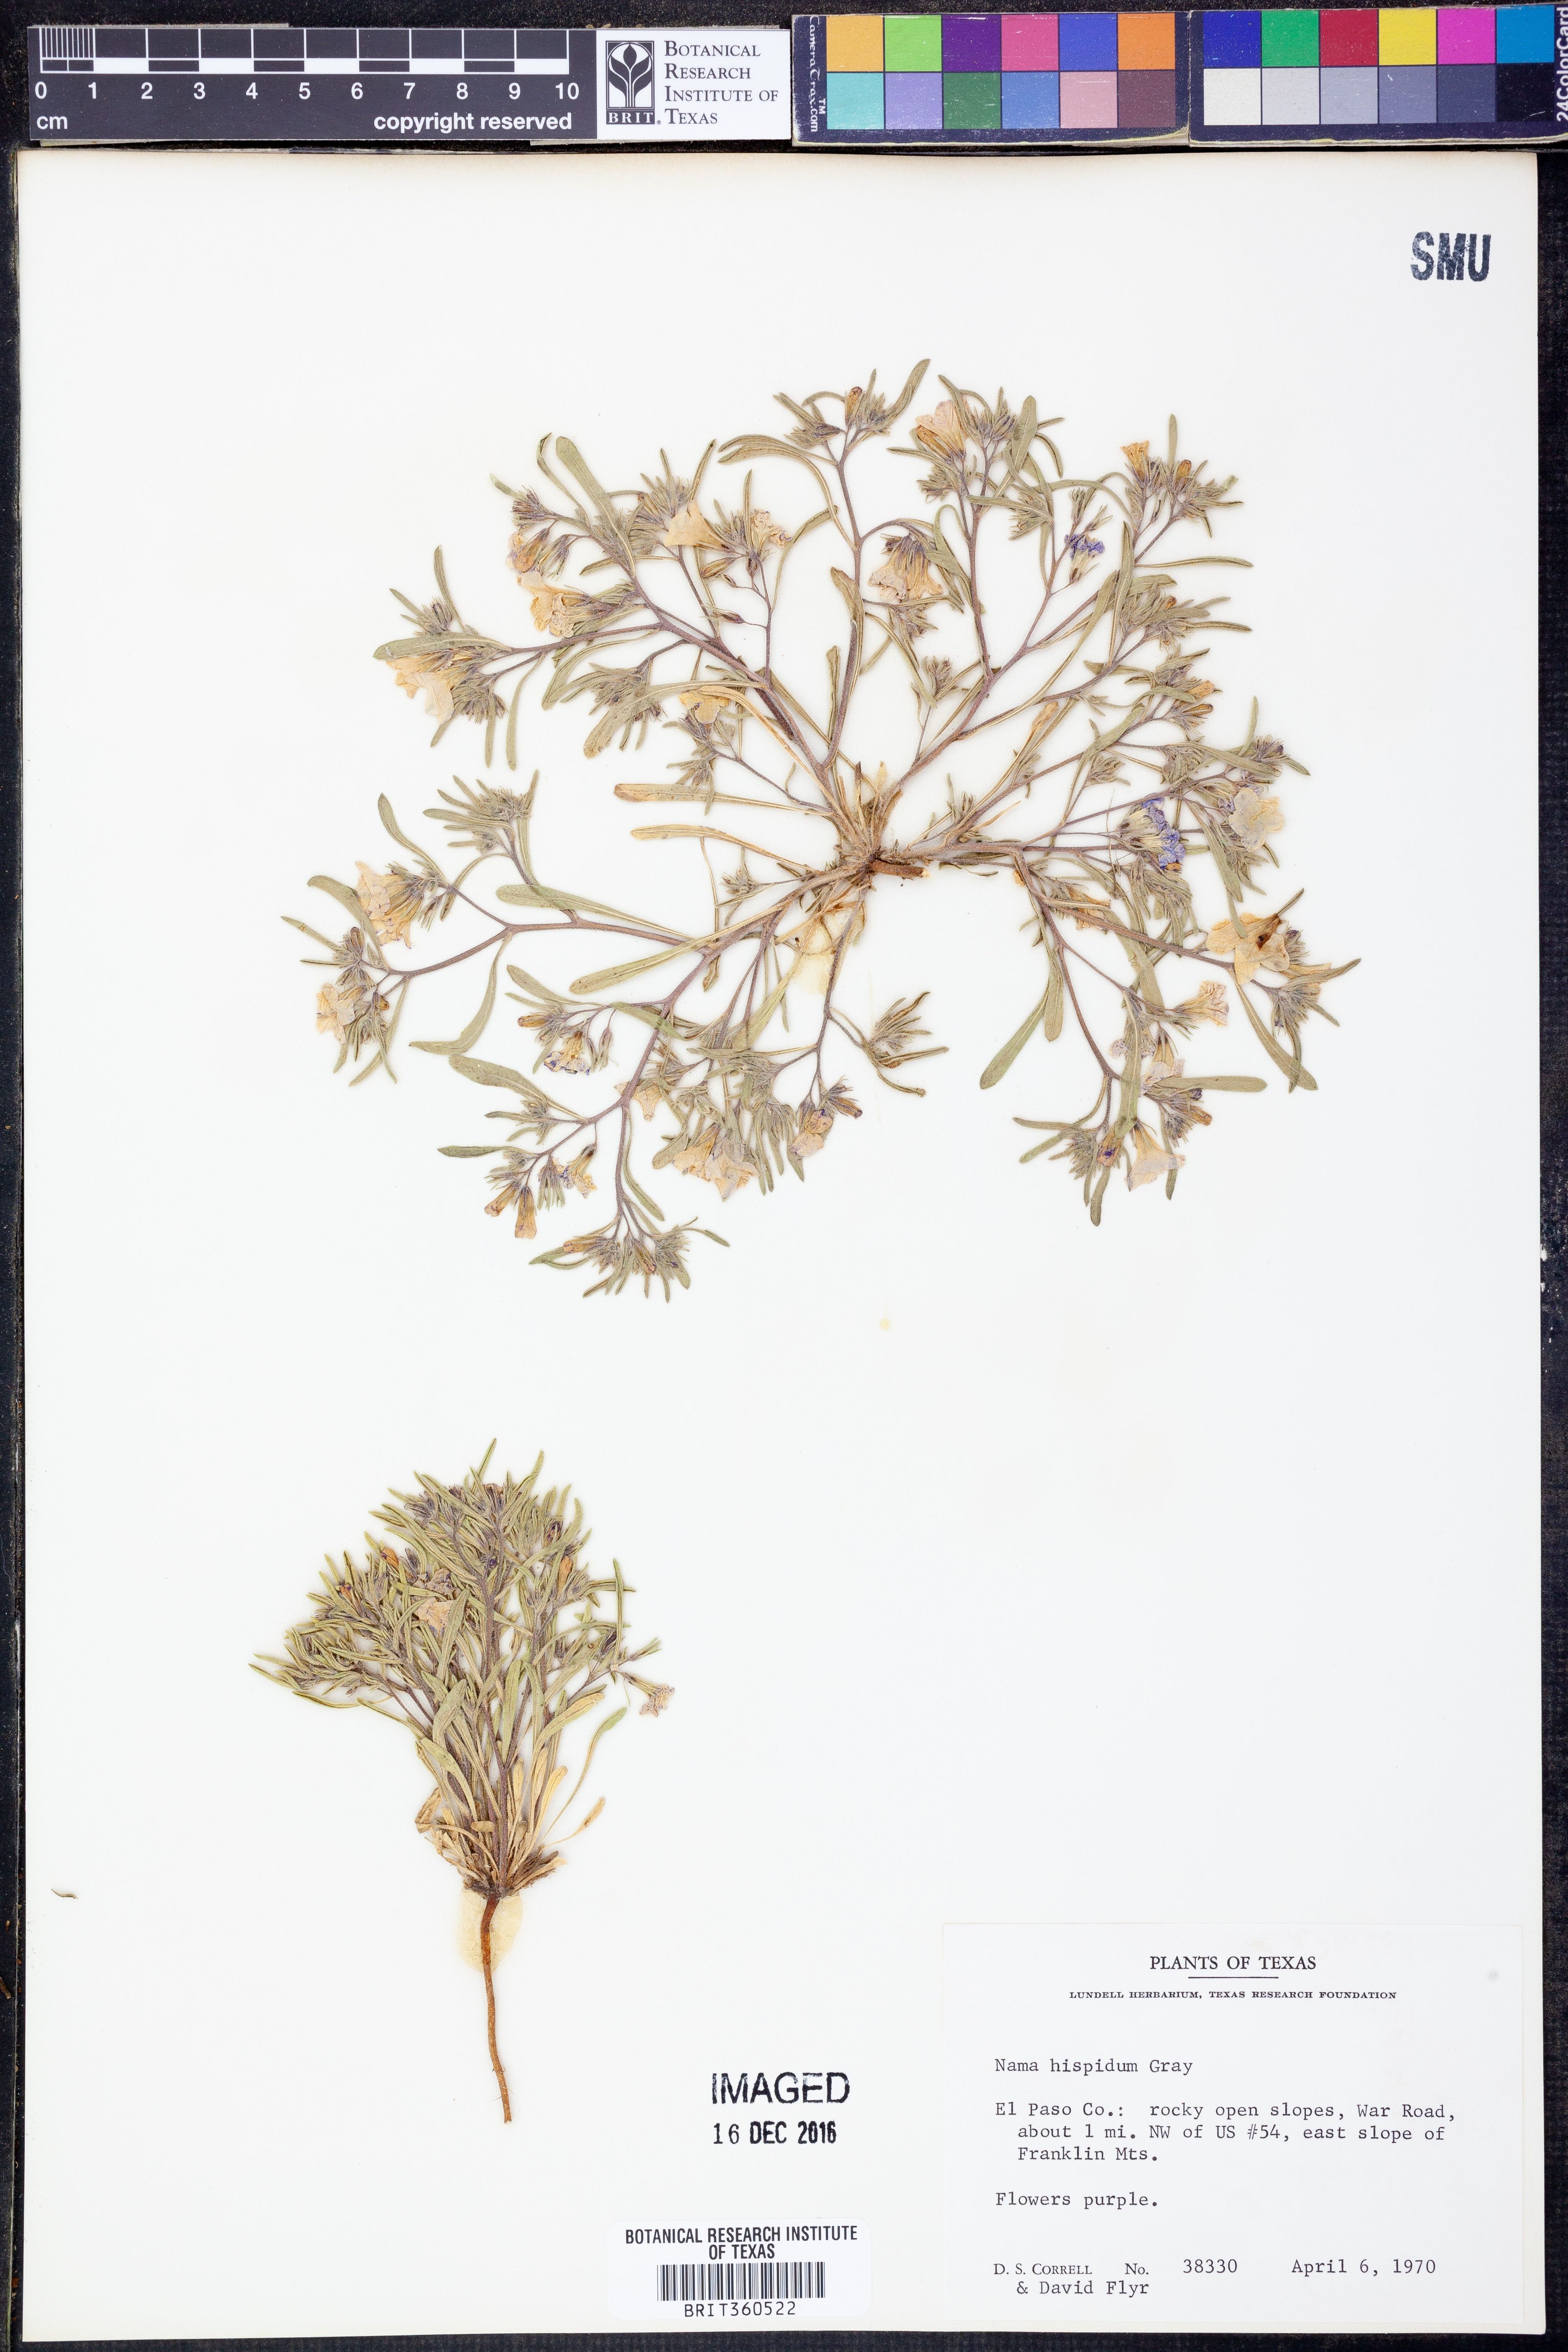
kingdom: Plantae
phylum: Tracheophyta
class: Magnoliopsida
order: Boraginales
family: Namaceae
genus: Nama
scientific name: Nama hispida
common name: Bristly nama
